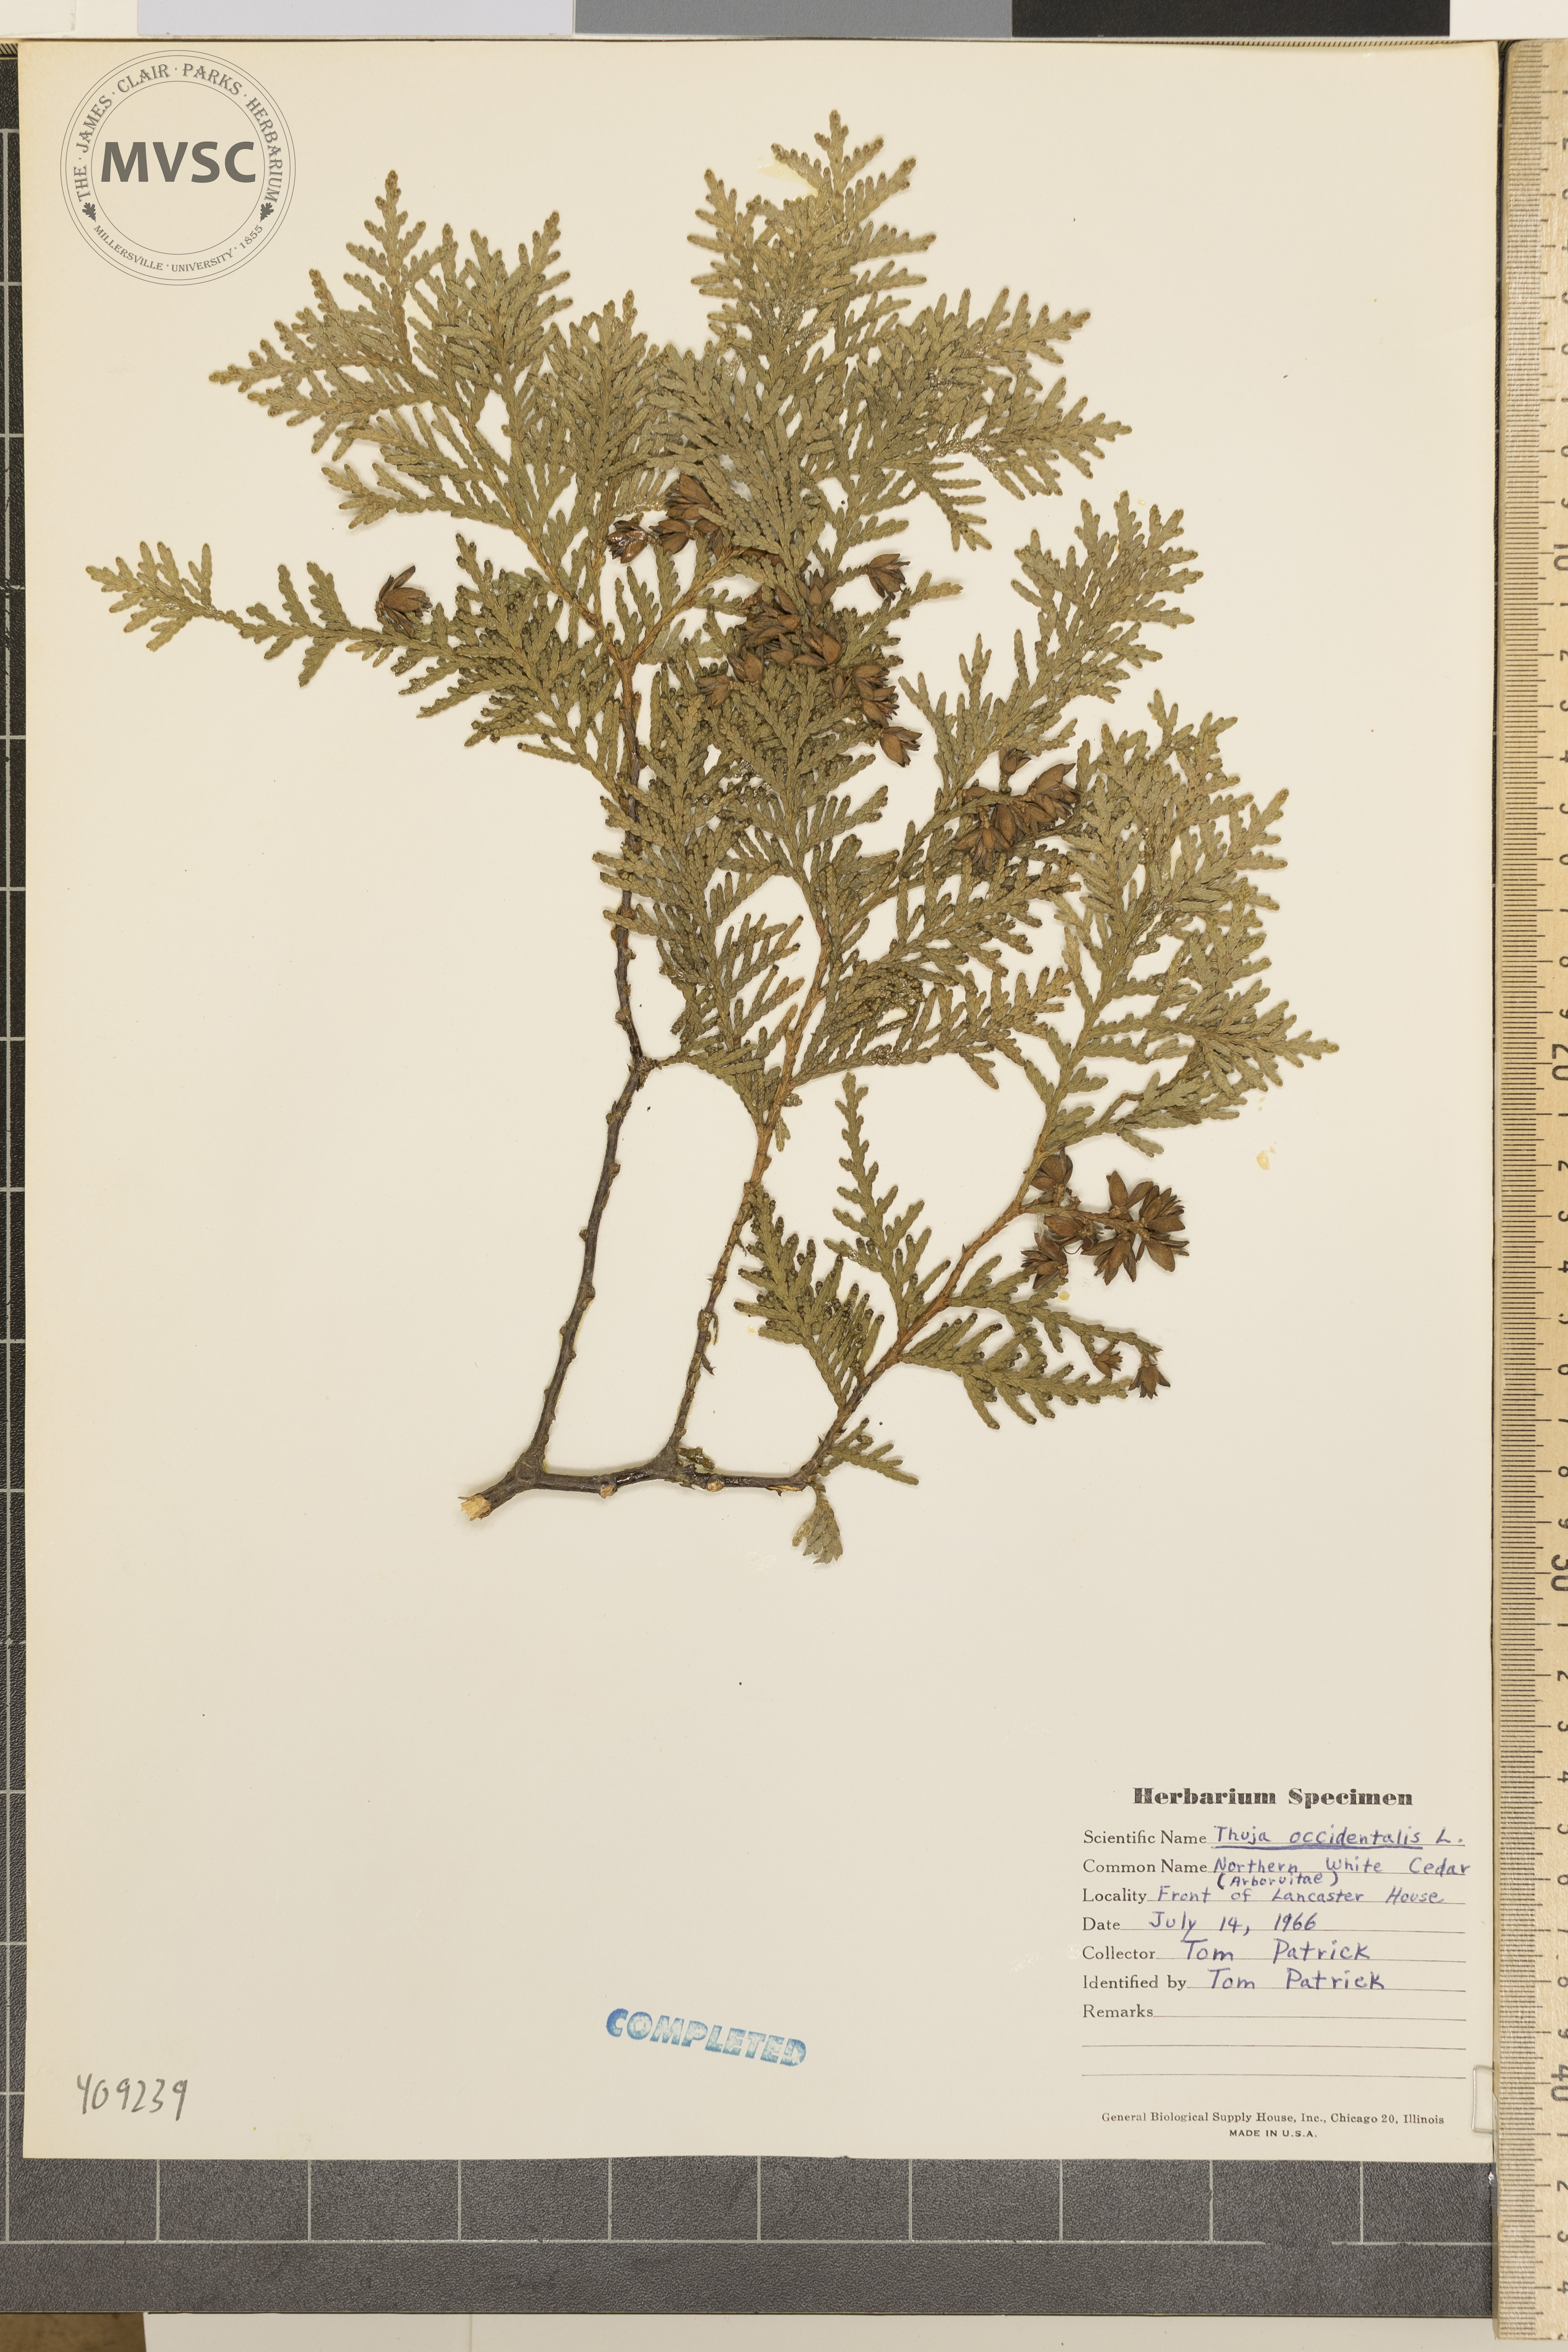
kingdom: Plantae
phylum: Tracheophyta
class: Pinopsida
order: Pinales
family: Cupressaceae
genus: Thuja
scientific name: Thuja occidentalis
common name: Northern white-cedar
